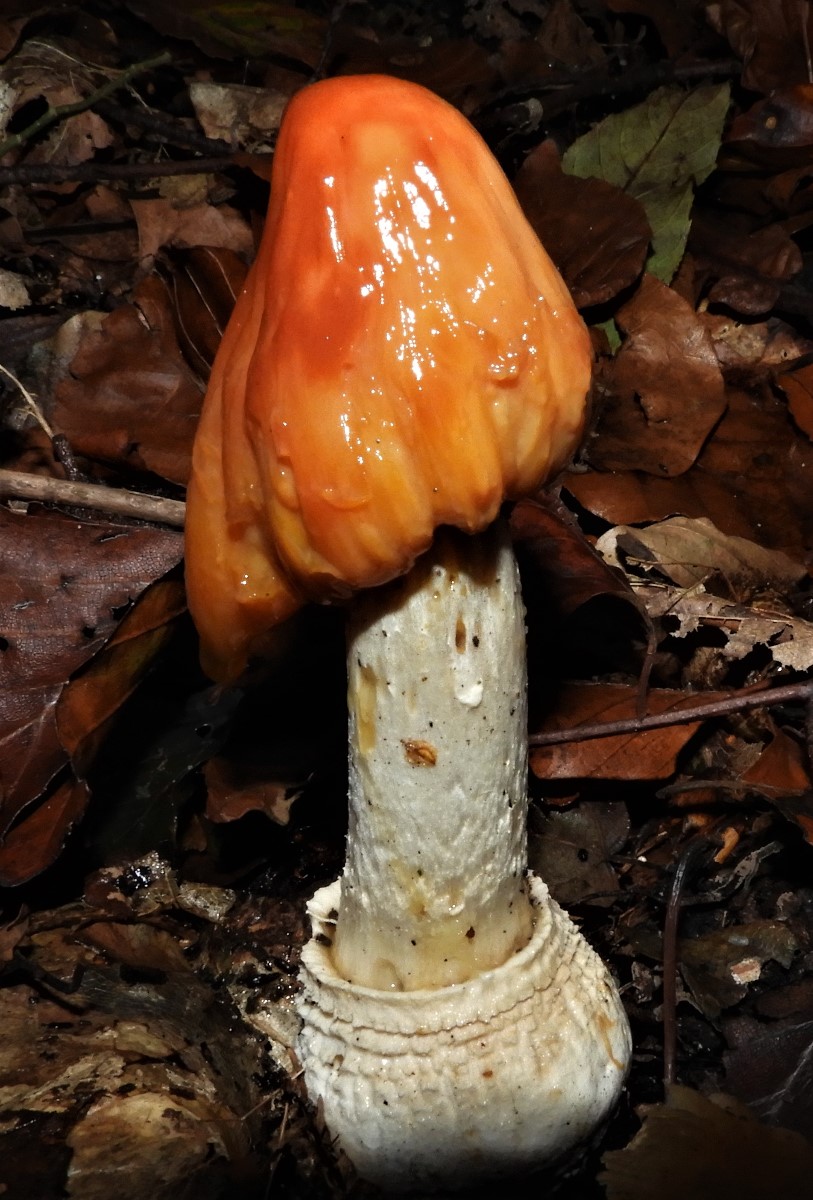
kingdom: Fungi
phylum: Basidiomycota
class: Agaricomycetes
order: Agaricales
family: Amanitaceae
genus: Amanita
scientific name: Amanita muscaria
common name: rød fluesvamp
